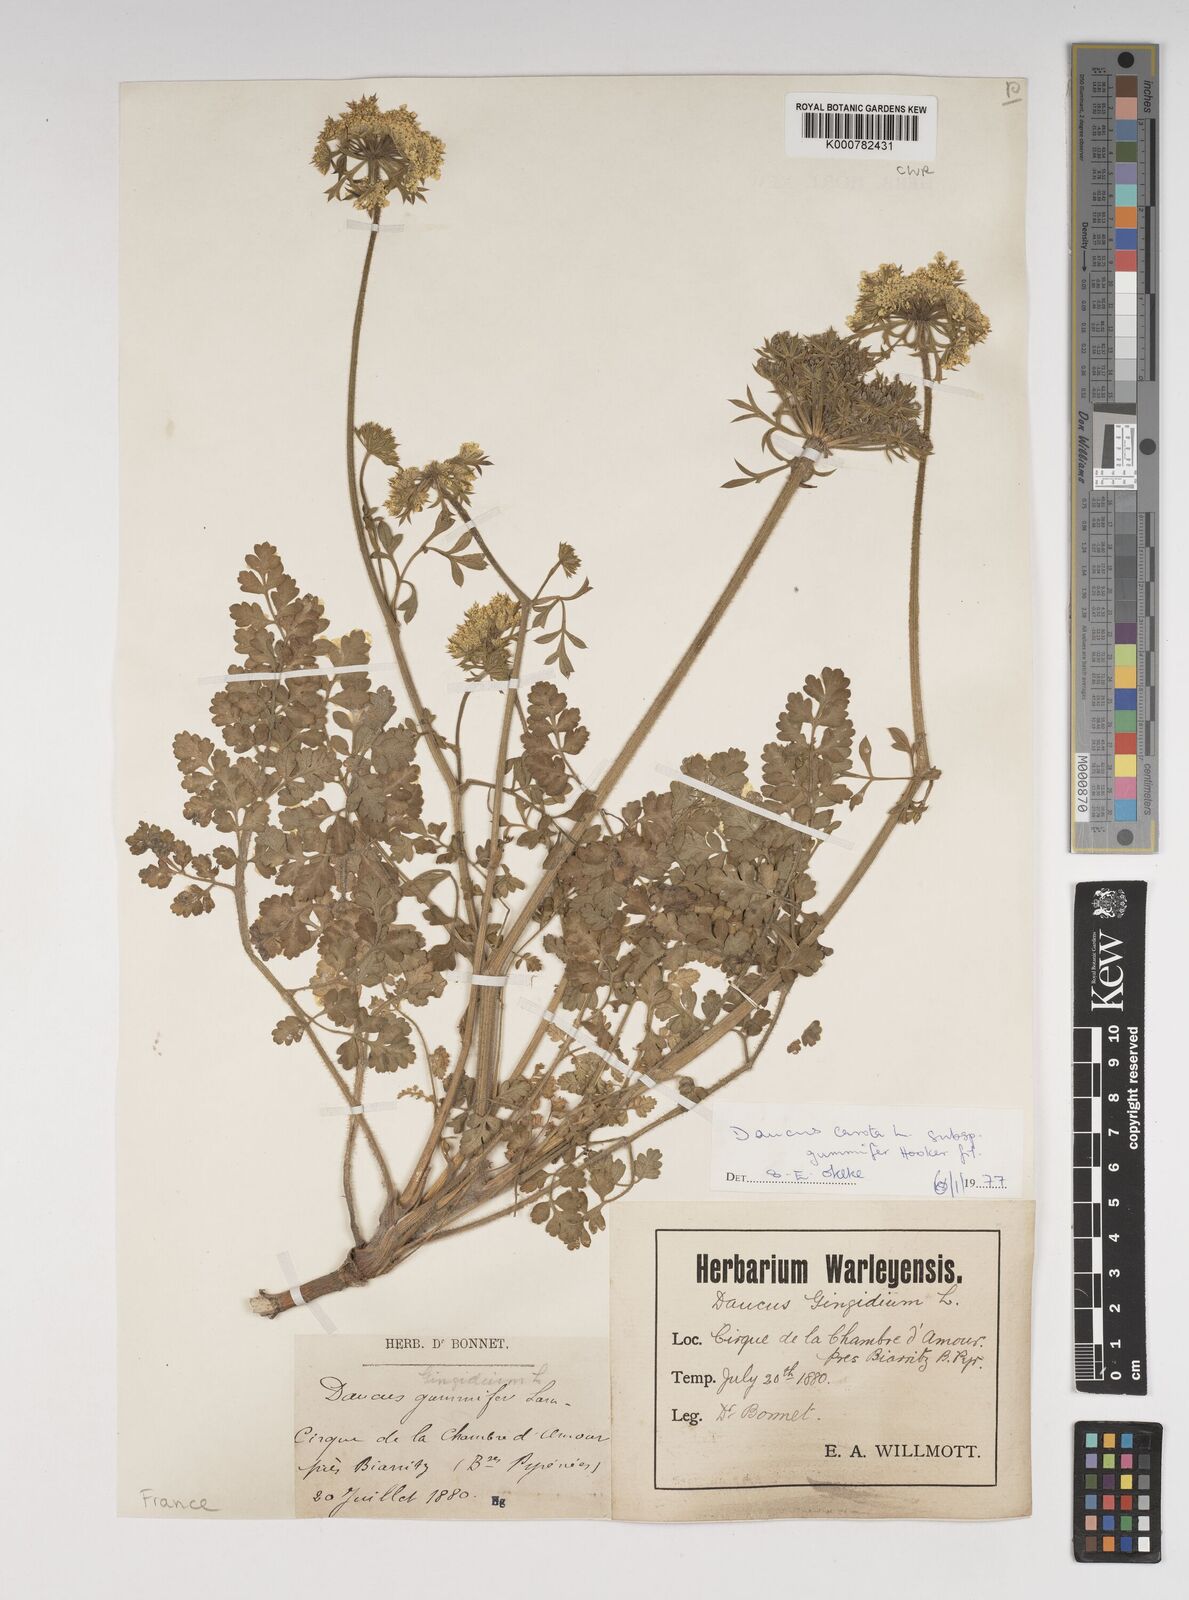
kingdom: Plantae
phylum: Tracheophyta
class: Magnoliopsida
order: Apiales
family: Apiaceae
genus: Daucus
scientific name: Daucus carota
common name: Wild carrot
